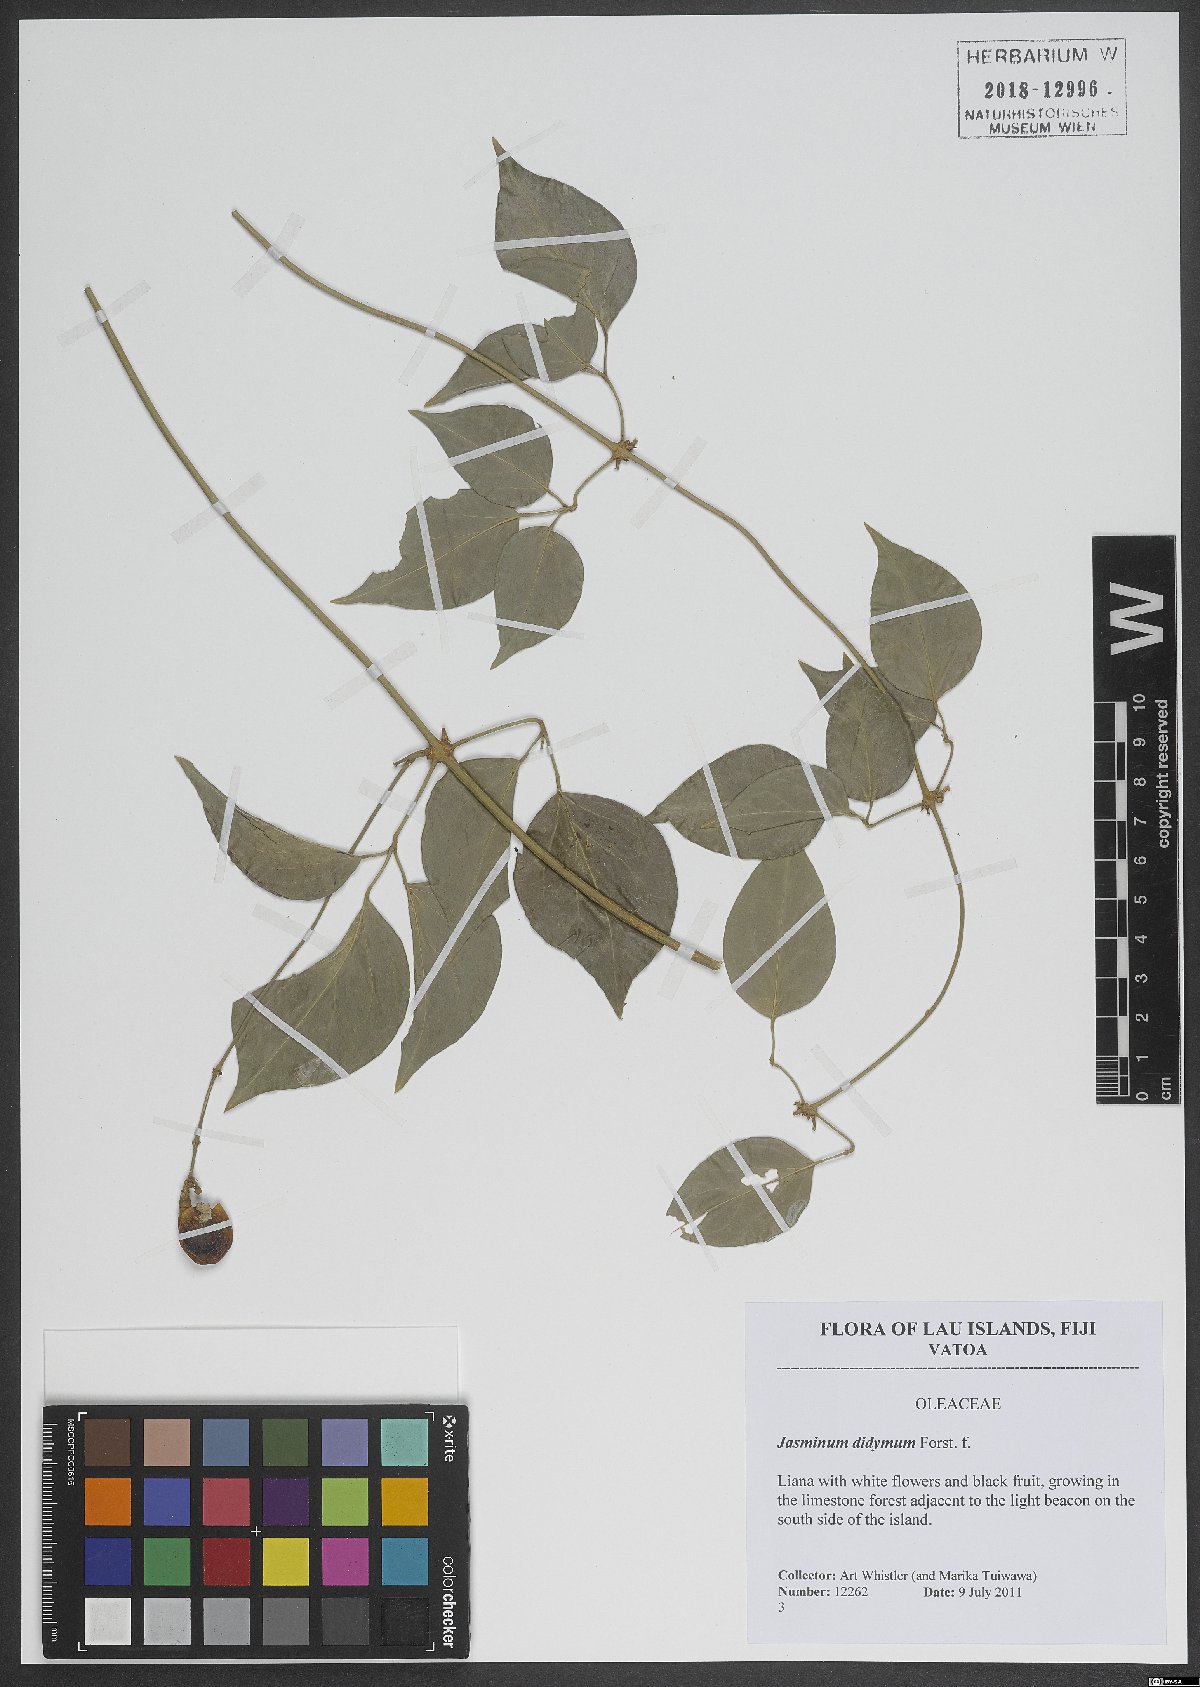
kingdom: Plantae
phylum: Tracheophyta
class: Magnoliopsida
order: Lamiales
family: Oleaceae
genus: Jasminum
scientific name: Jasminum didymum
